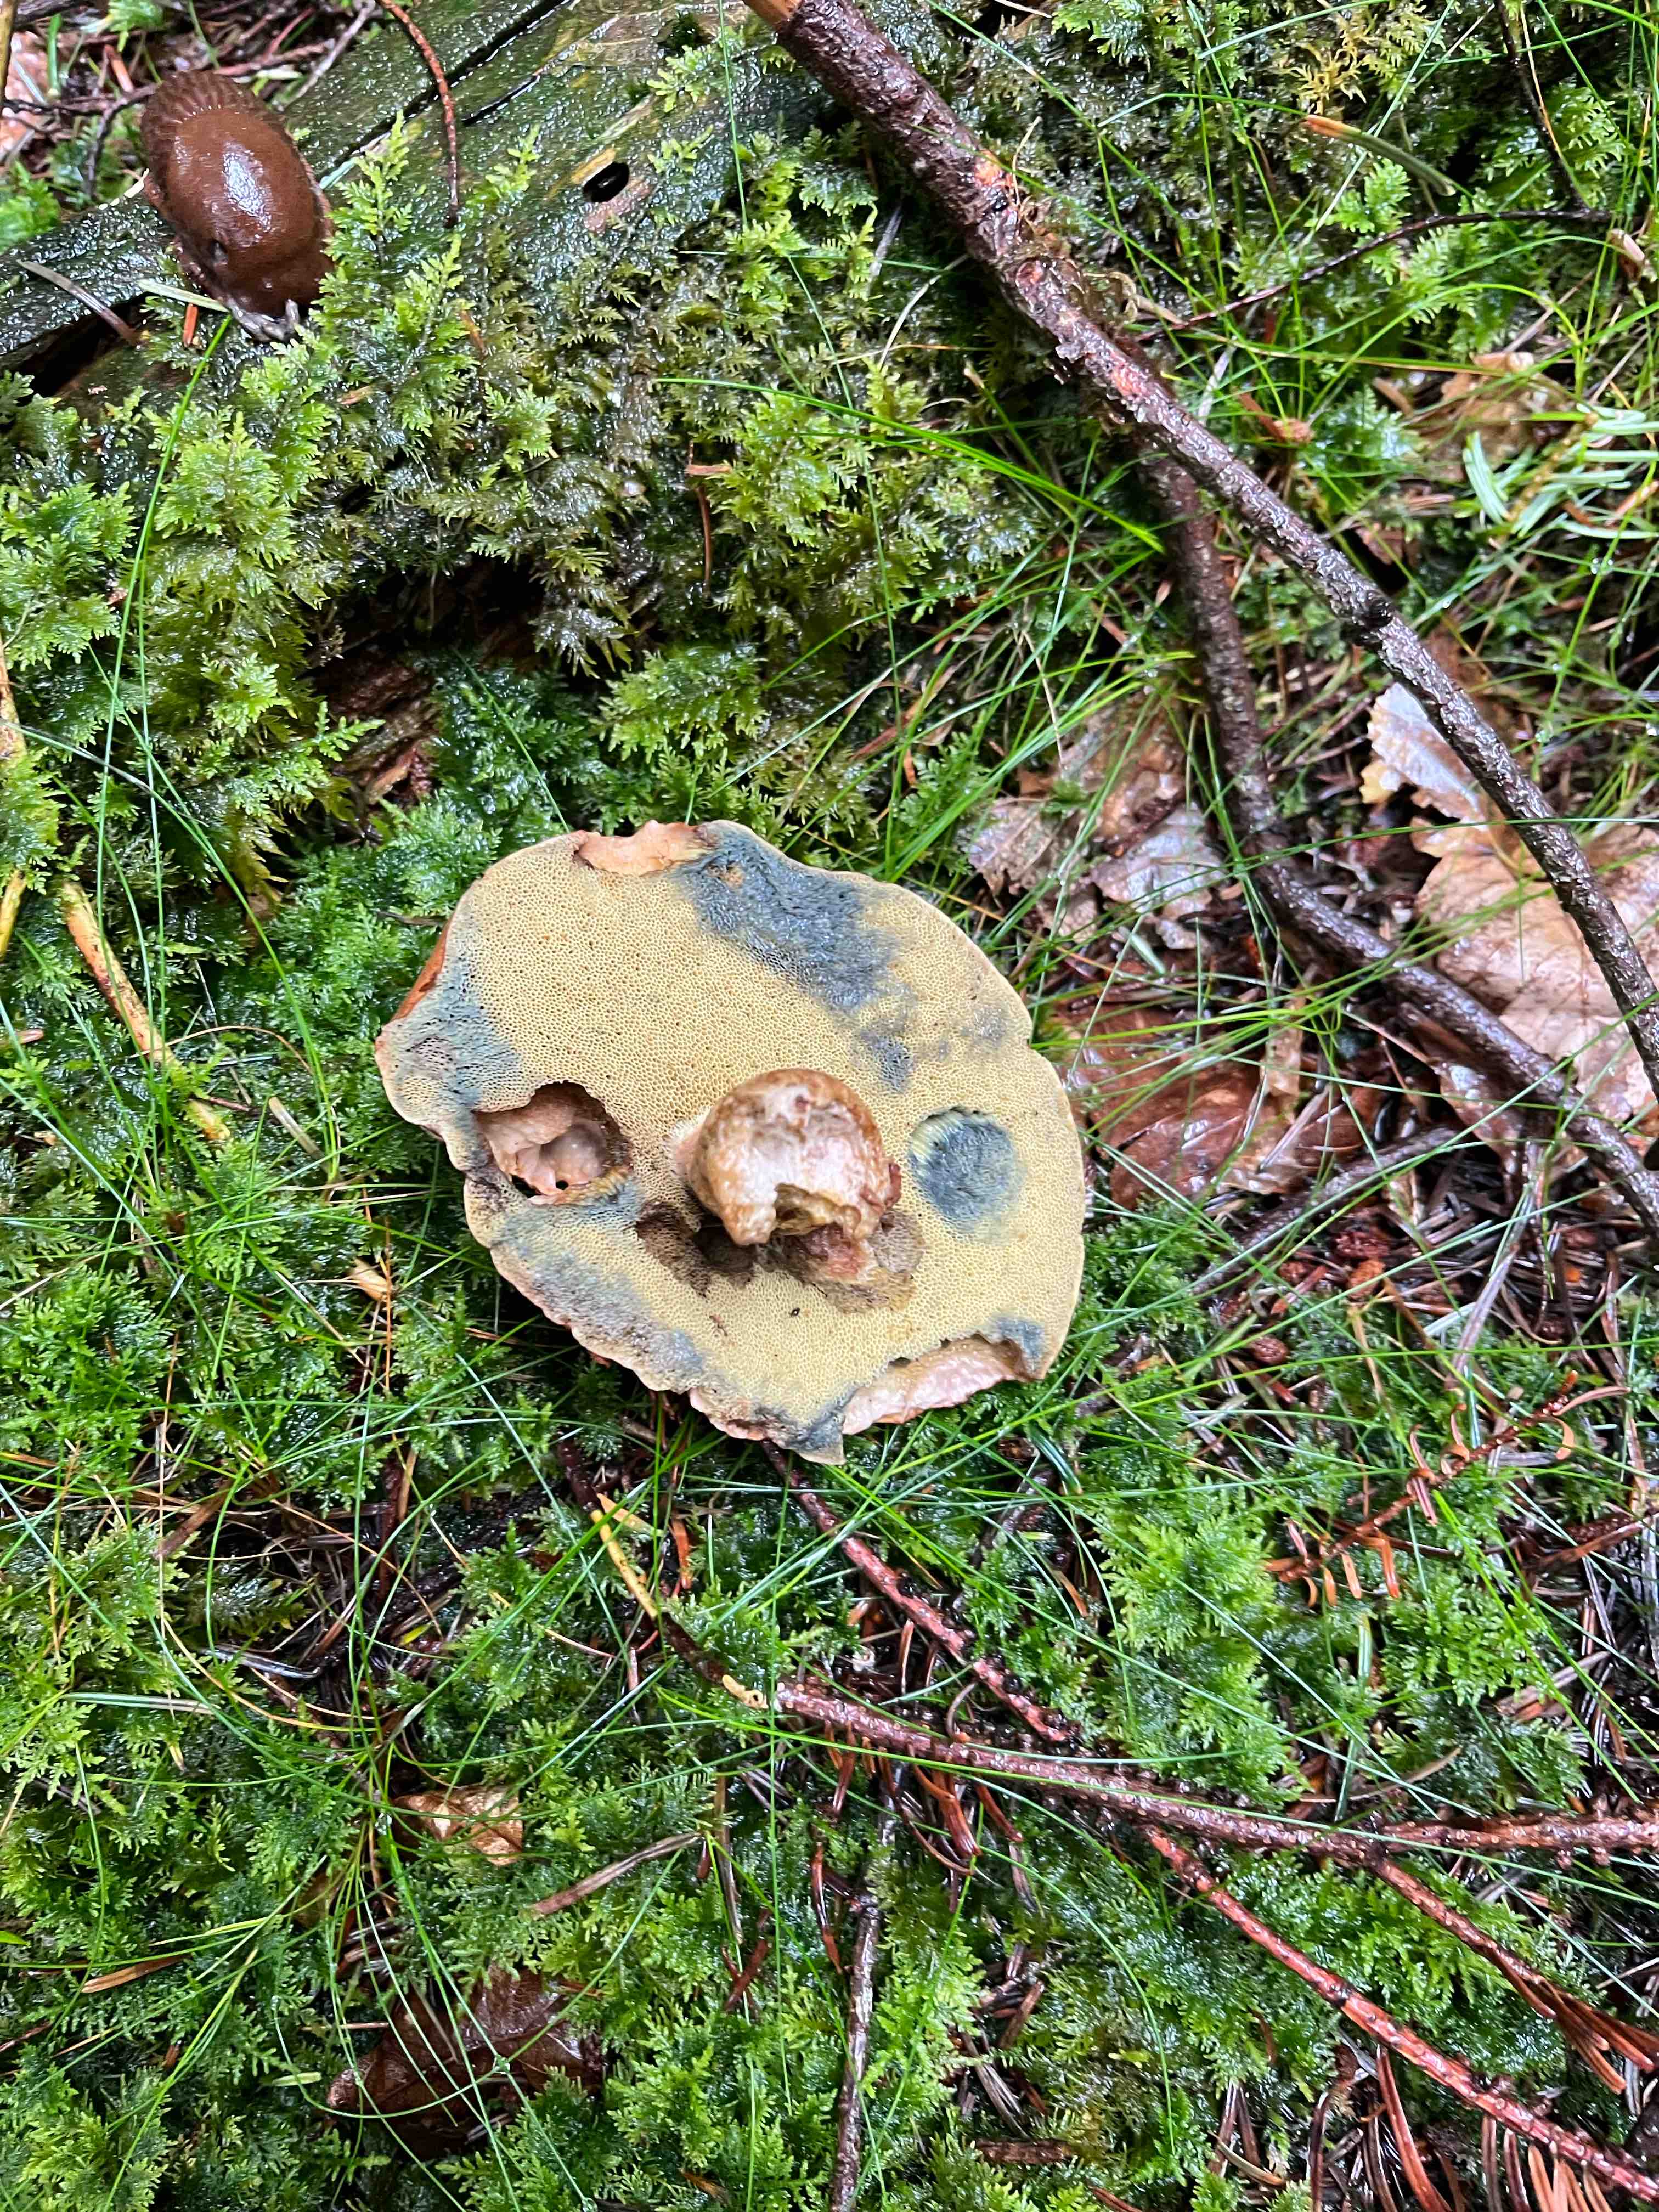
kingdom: Fungi
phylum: Basidiomycota
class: Agaricomycetes
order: Boletales
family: Boletaceae
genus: Imleria
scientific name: Imleria badia
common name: brunstokket rørhat
